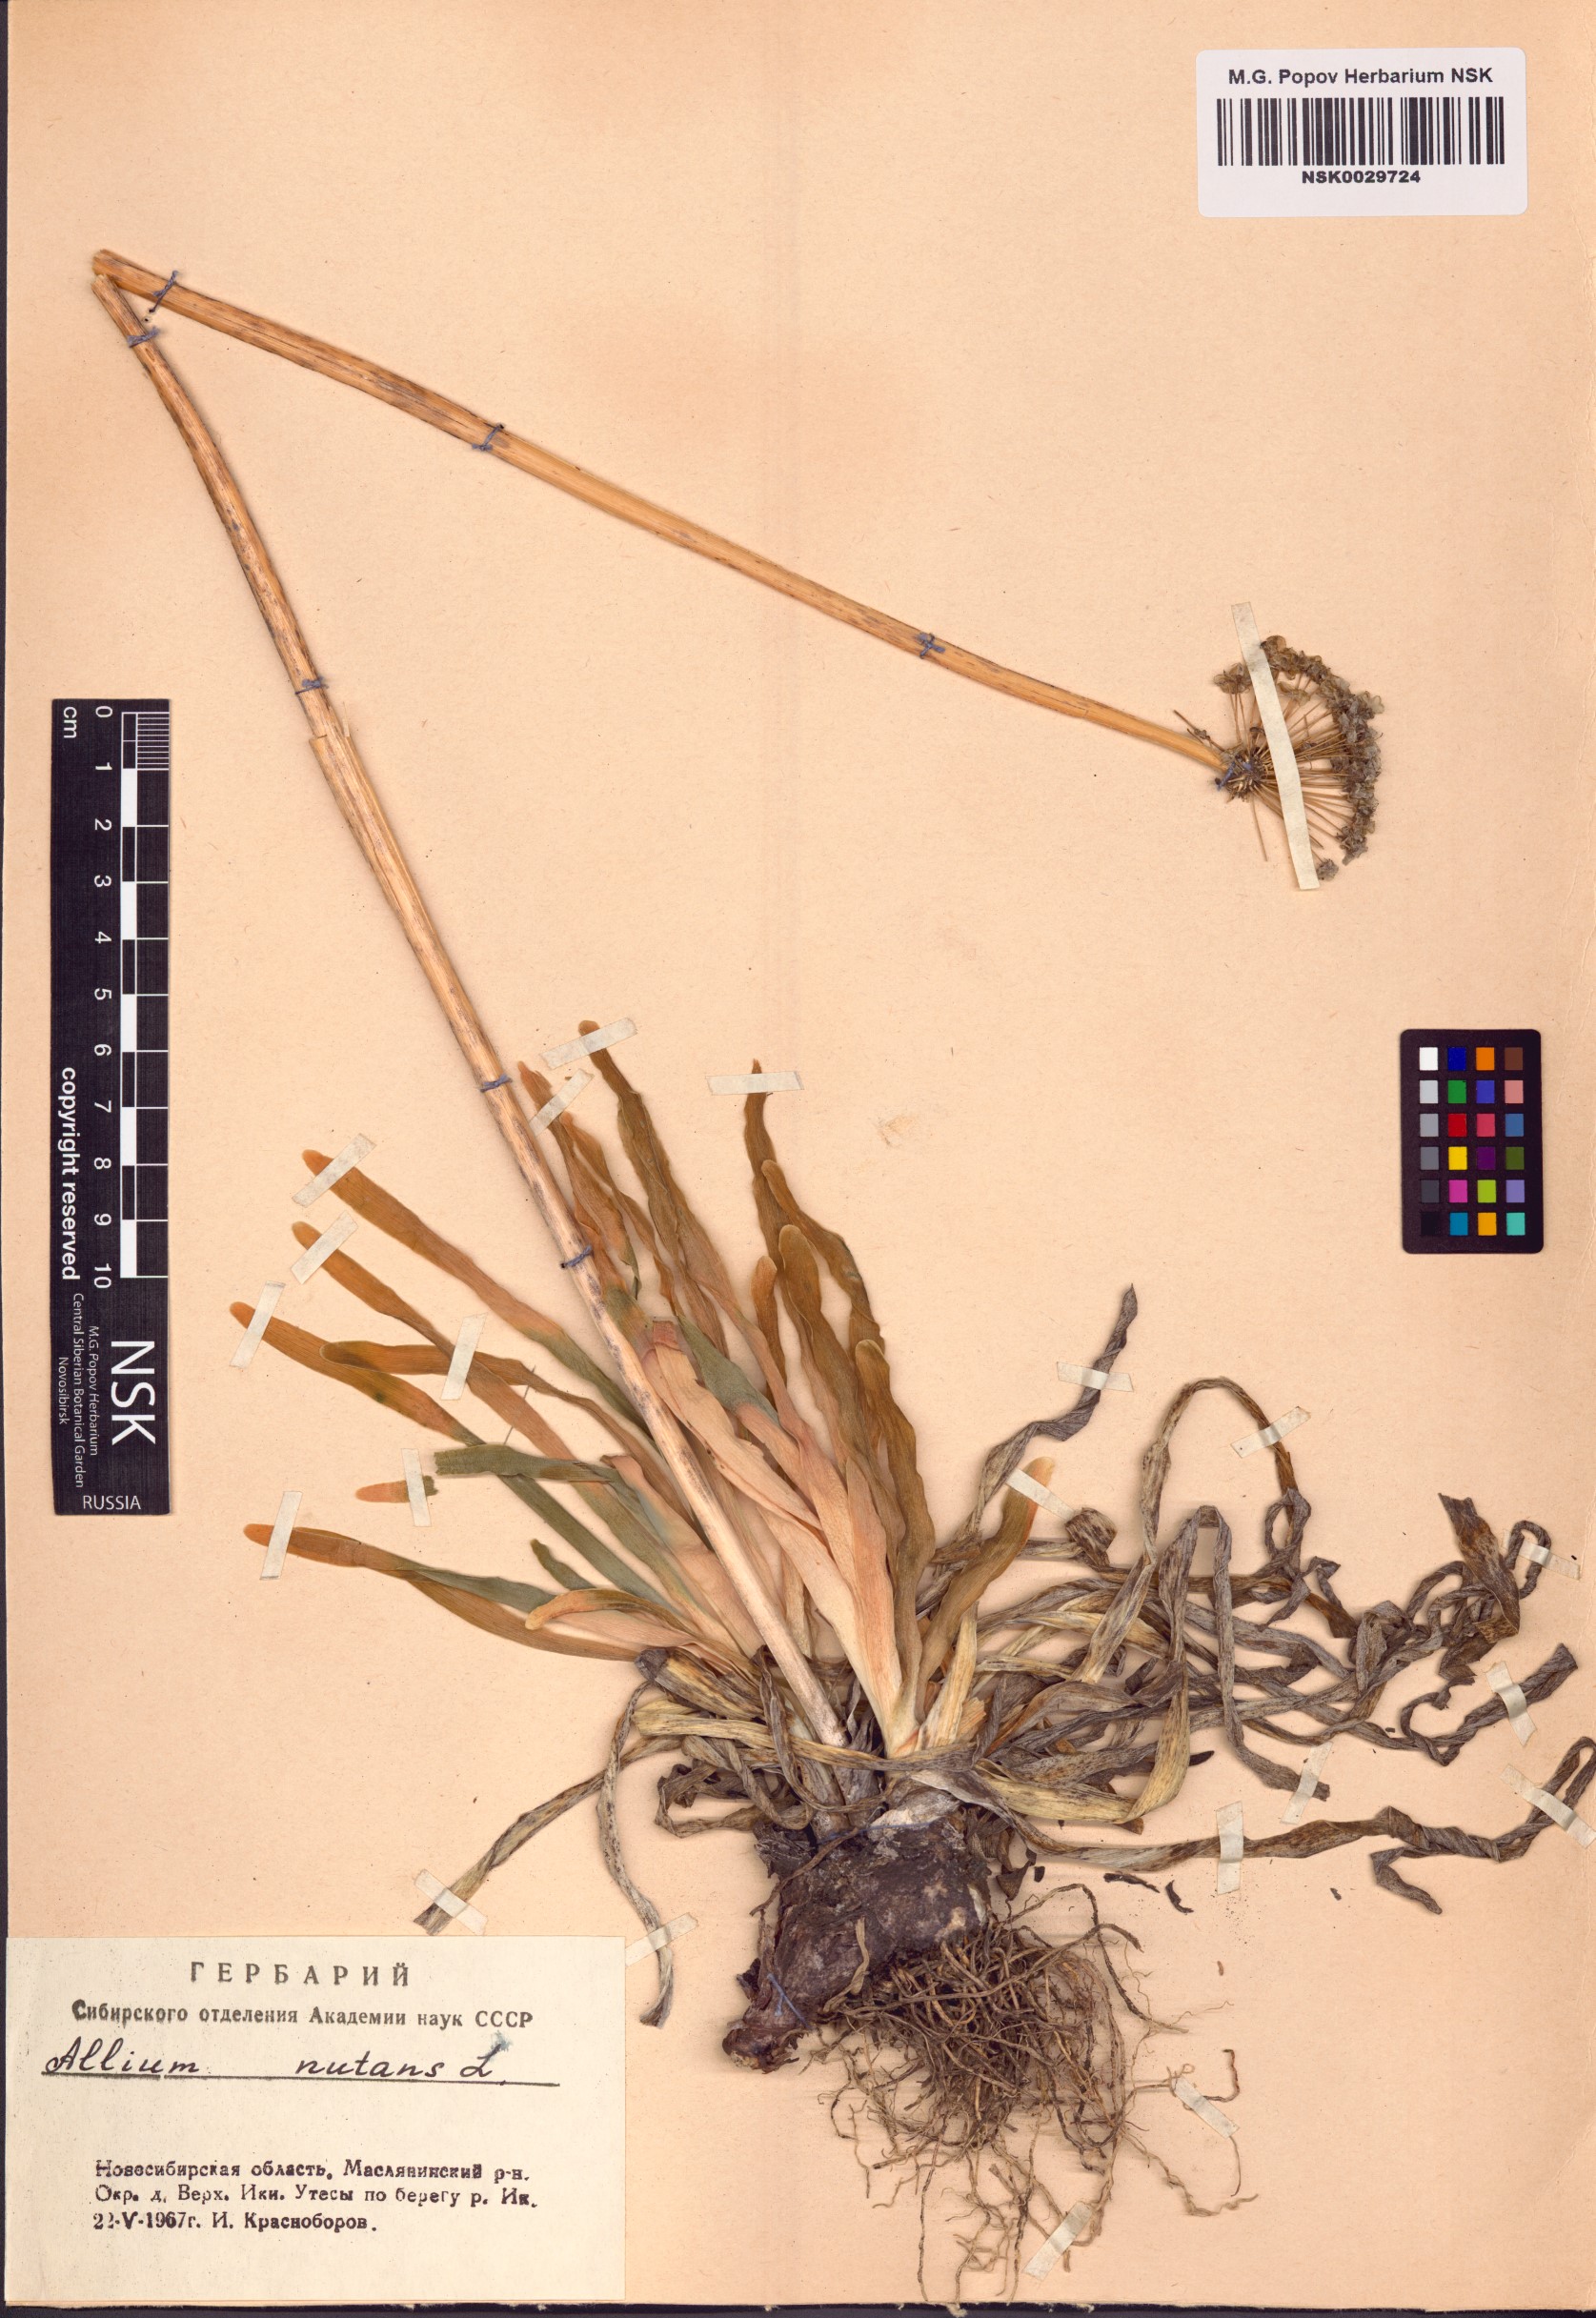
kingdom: Plantae
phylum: Tracheophyta
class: Liliopsida
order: Asparagales
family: Amaryllidaceae
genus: Allium
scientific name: Allium nutans
